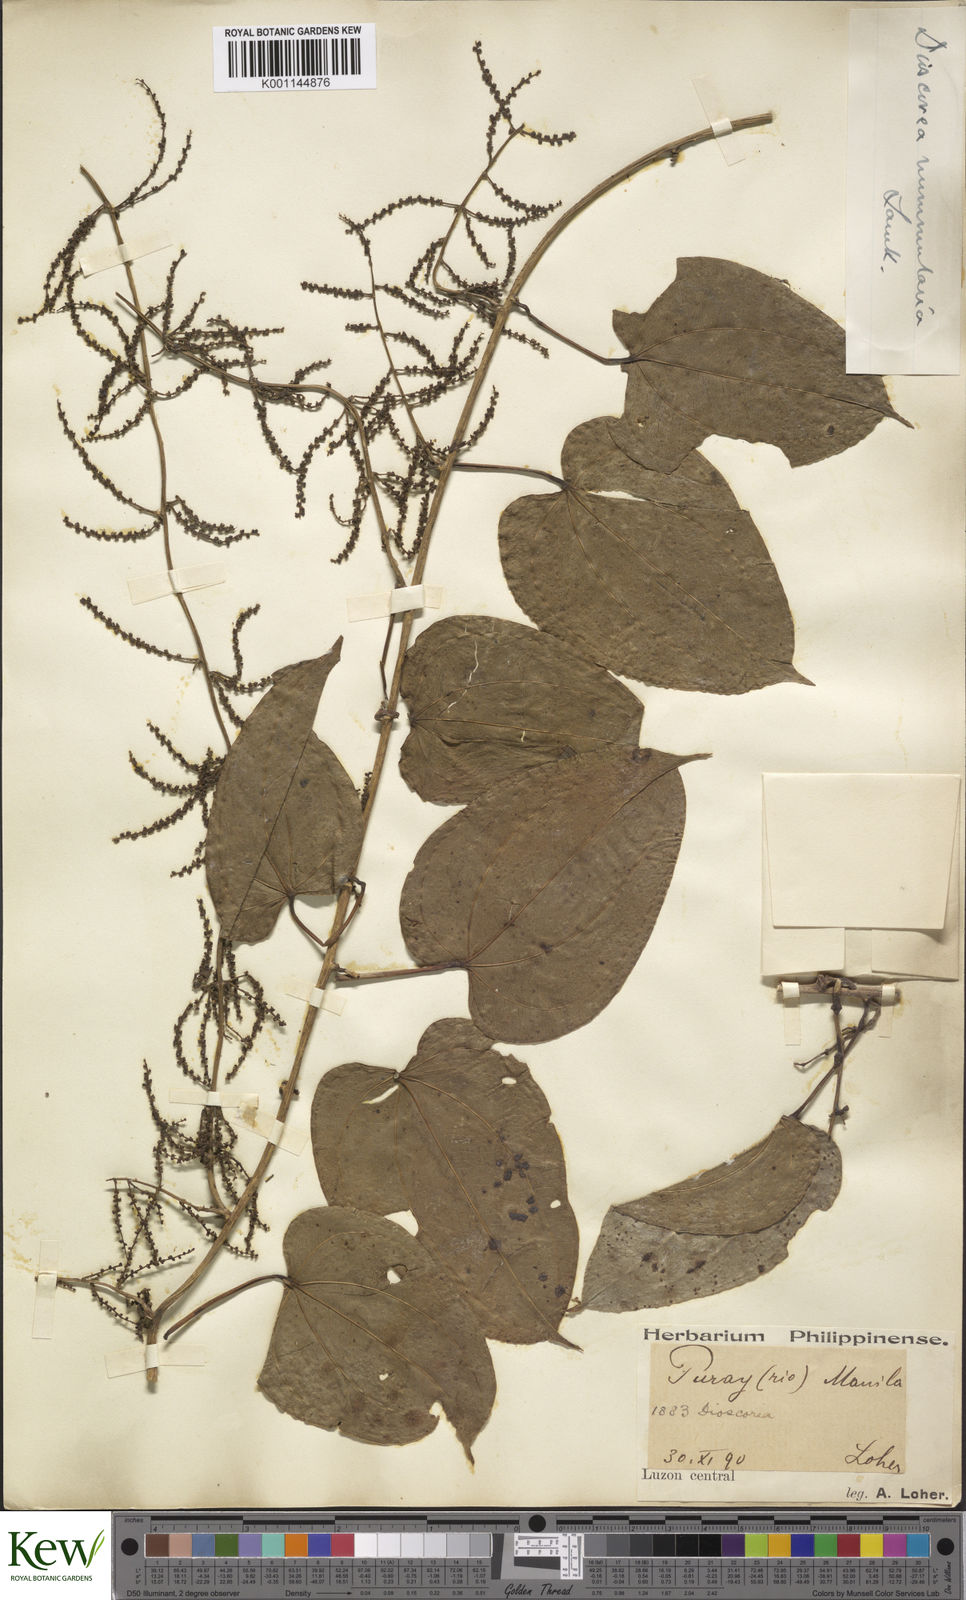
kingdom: Plantae
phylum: Tracheophyta
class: Liliopsida
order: Dioscoreales
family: Dioscoreaceae
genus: Dioscorea
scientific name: Dioscorea nummularia
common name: Pacific yam
